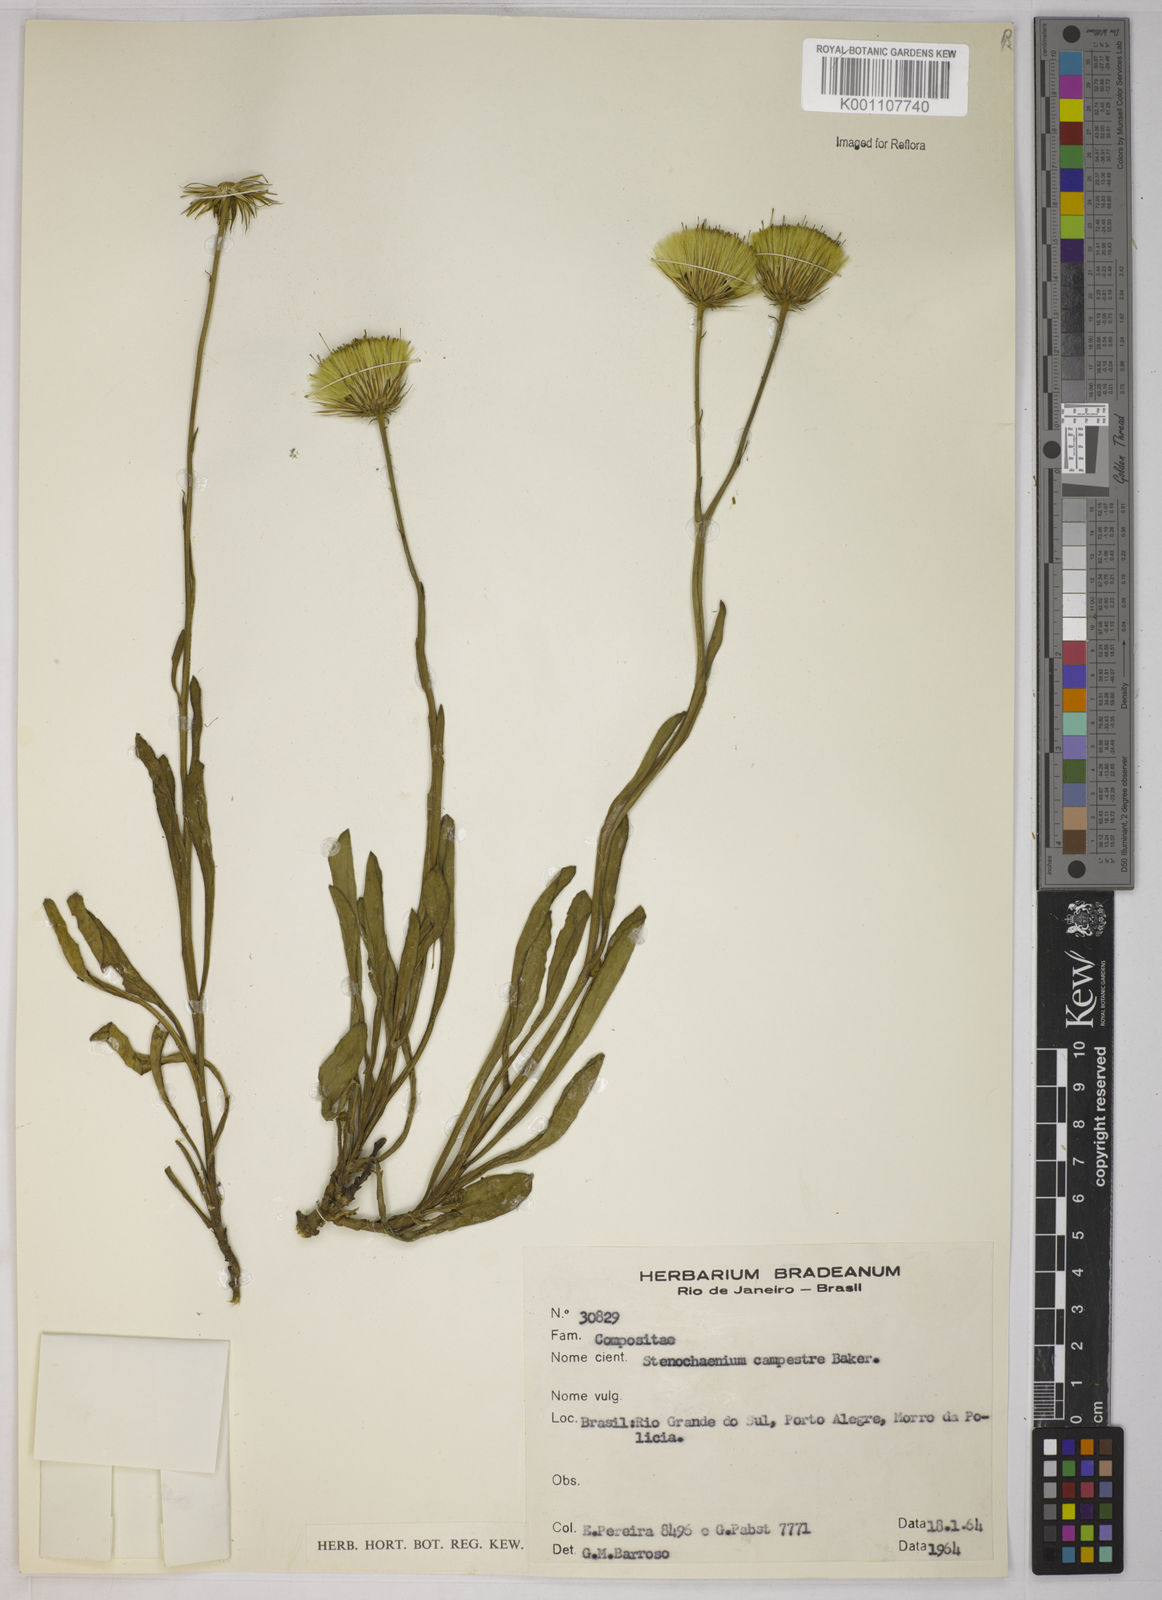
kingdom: Plantae
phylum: Tracheophyta
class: Magnoliopsida
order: Asterales
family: Asteraceae
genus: Stenachaenium
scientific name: Stenachaenium campestre
